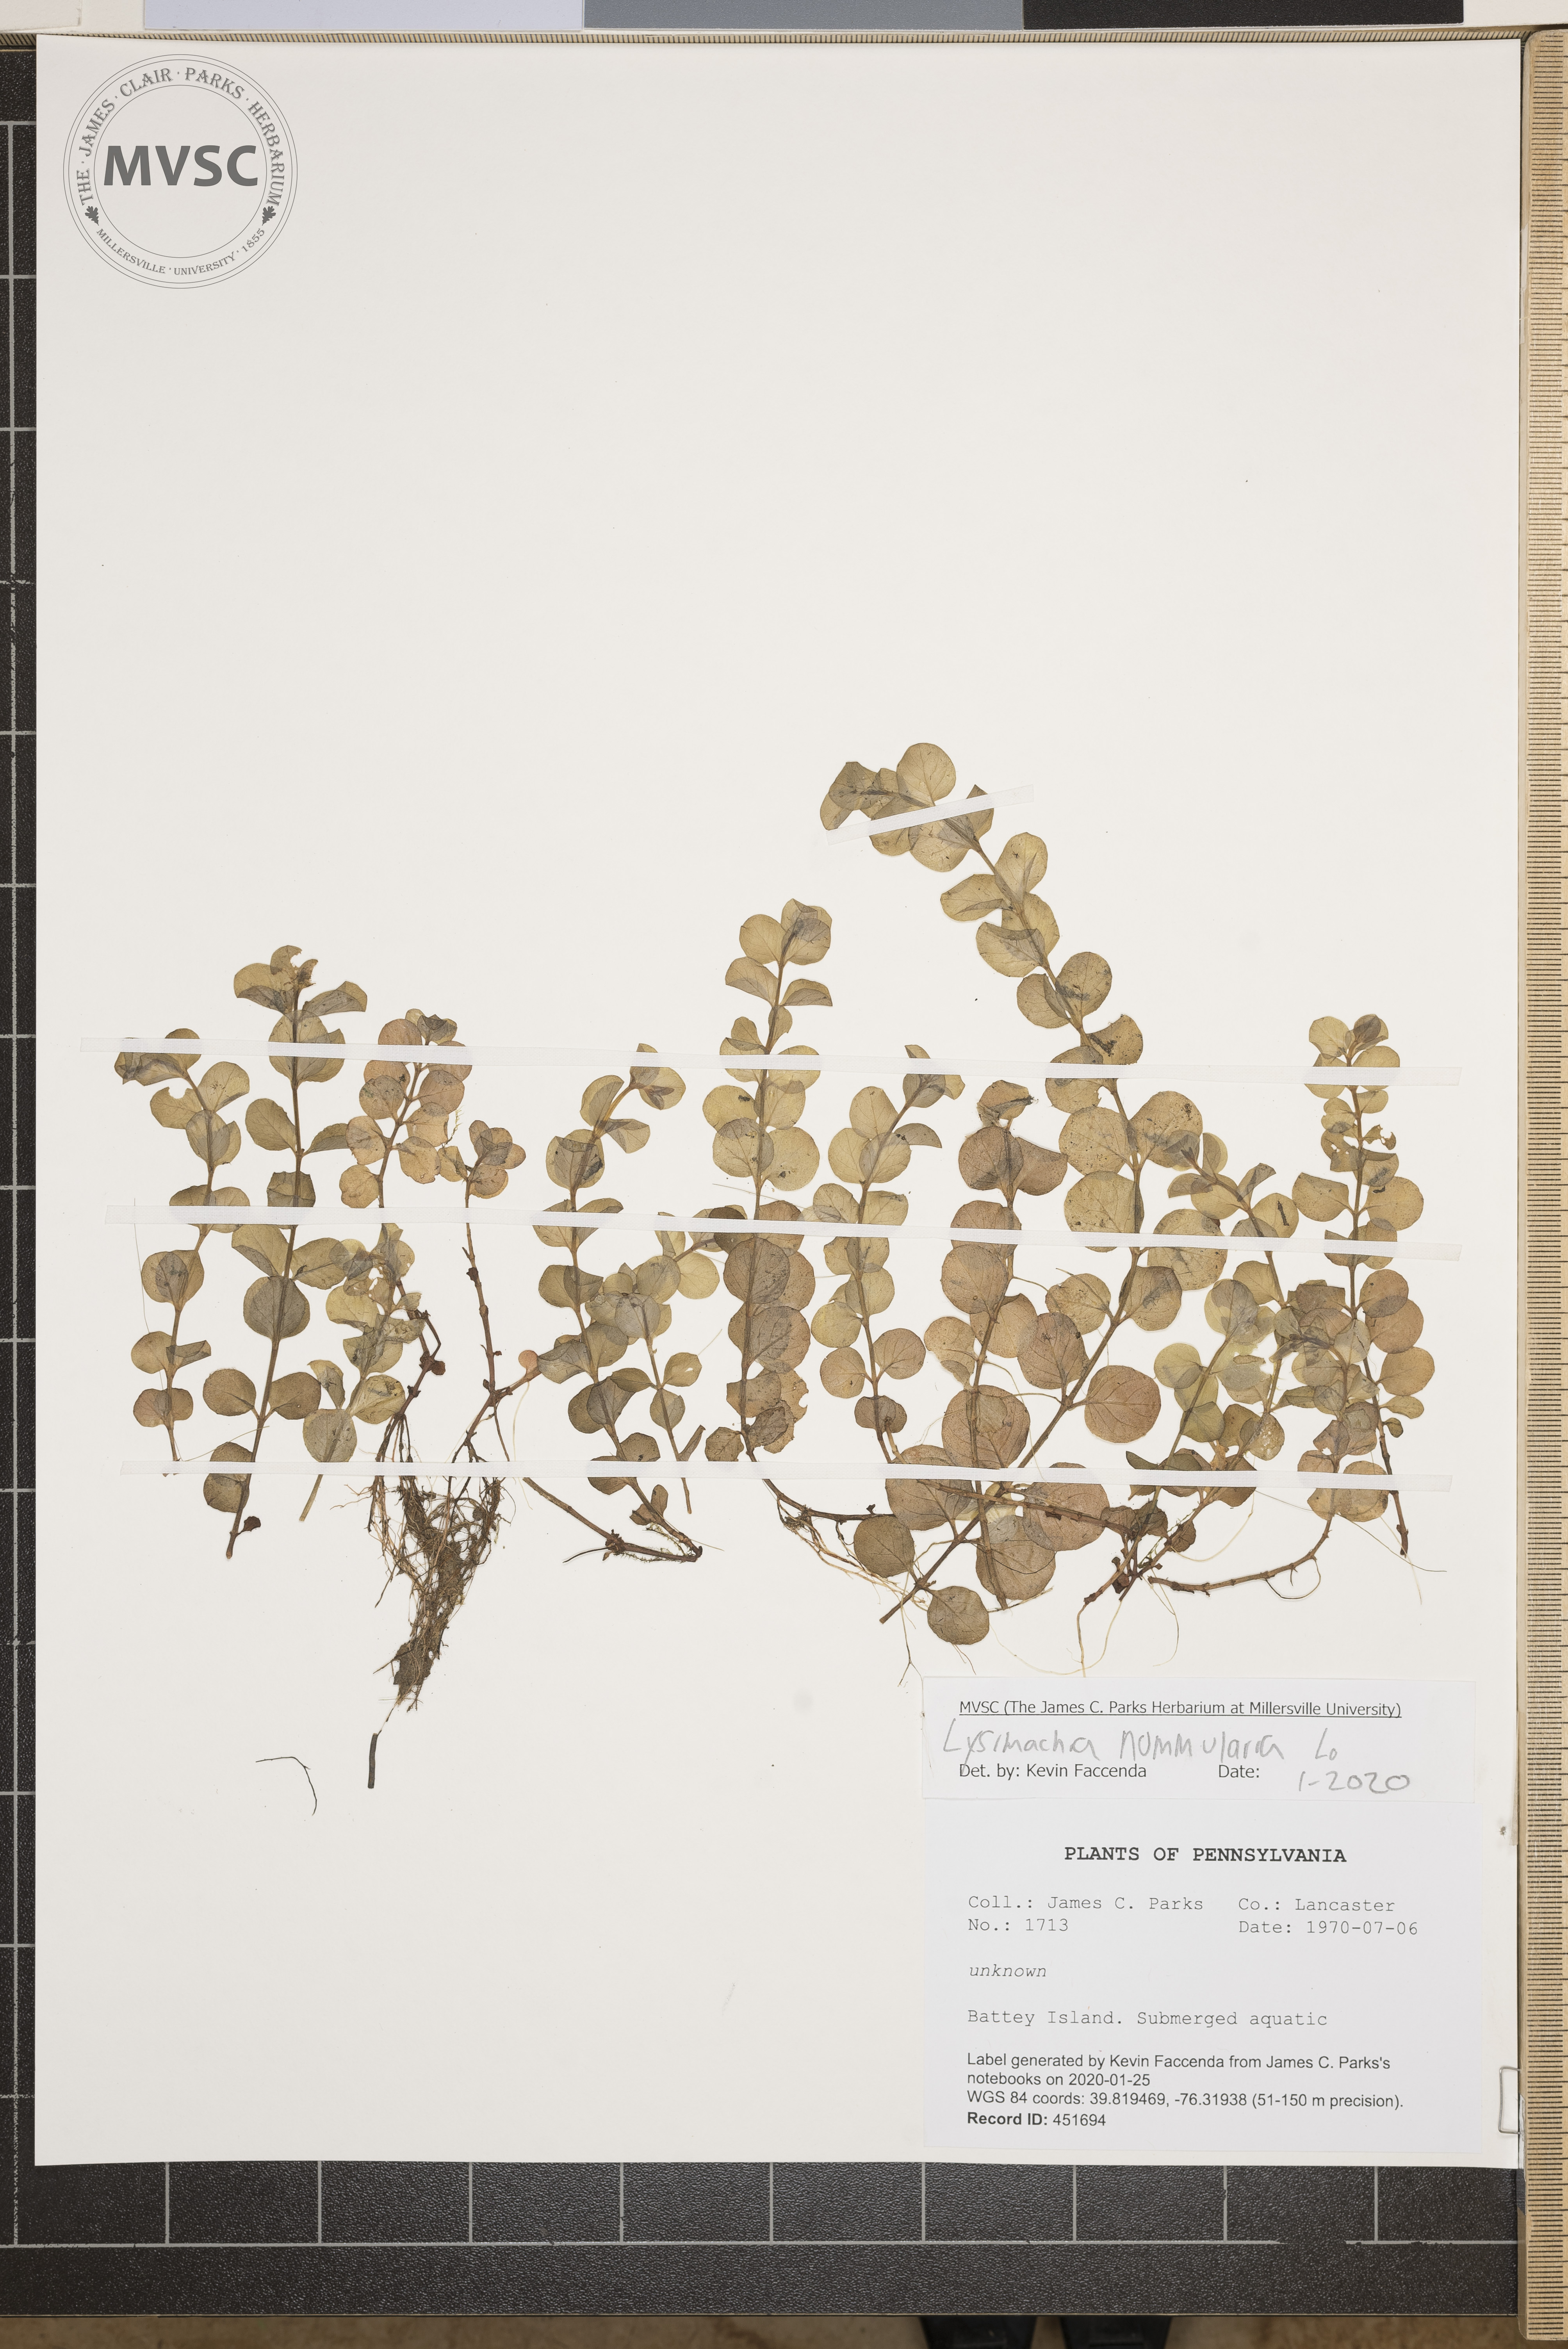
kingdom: Plantae
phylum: Tracheophyta
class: Magnoliopsida
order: Ericales
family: Primulaceae
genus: Lysimachia
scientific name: Lysimachia nummularia
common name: Moneywort
